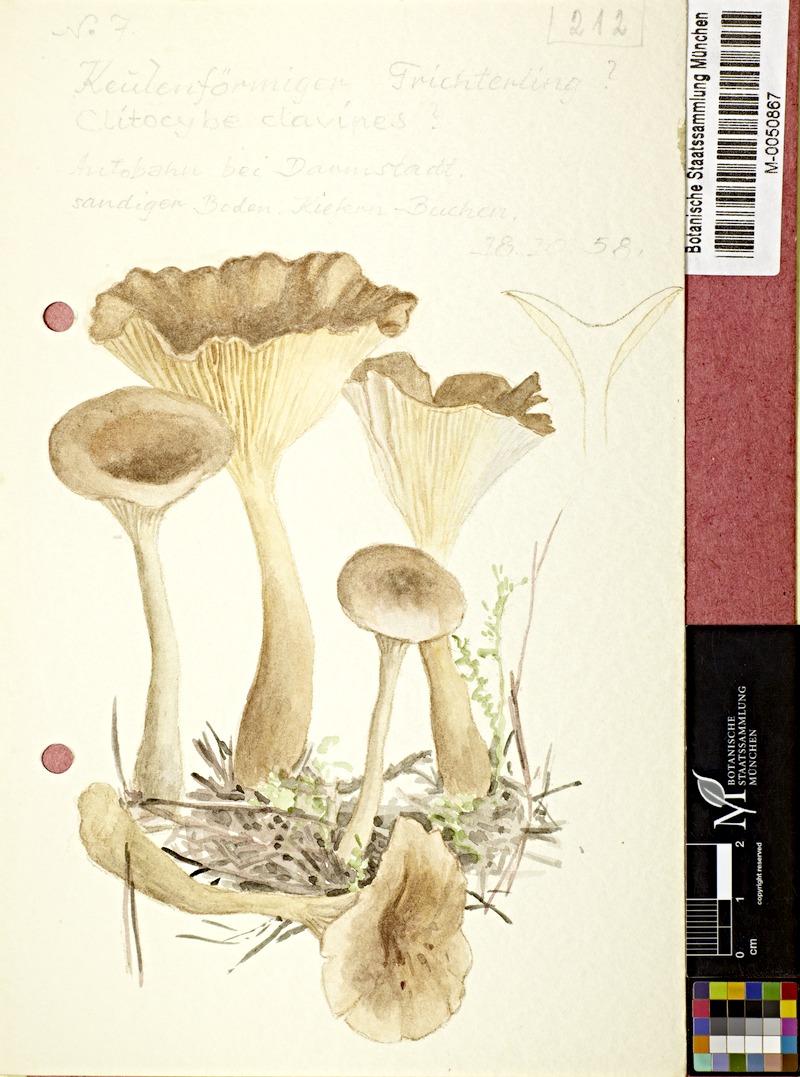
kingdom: Fungi
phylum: Basidiomycota
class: Agaricomycetes
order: Agaricales
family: Hygrophoraceae
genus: Ampulloclitocybe
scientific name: Ampulloclitocybe clavipes
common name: Club foot
